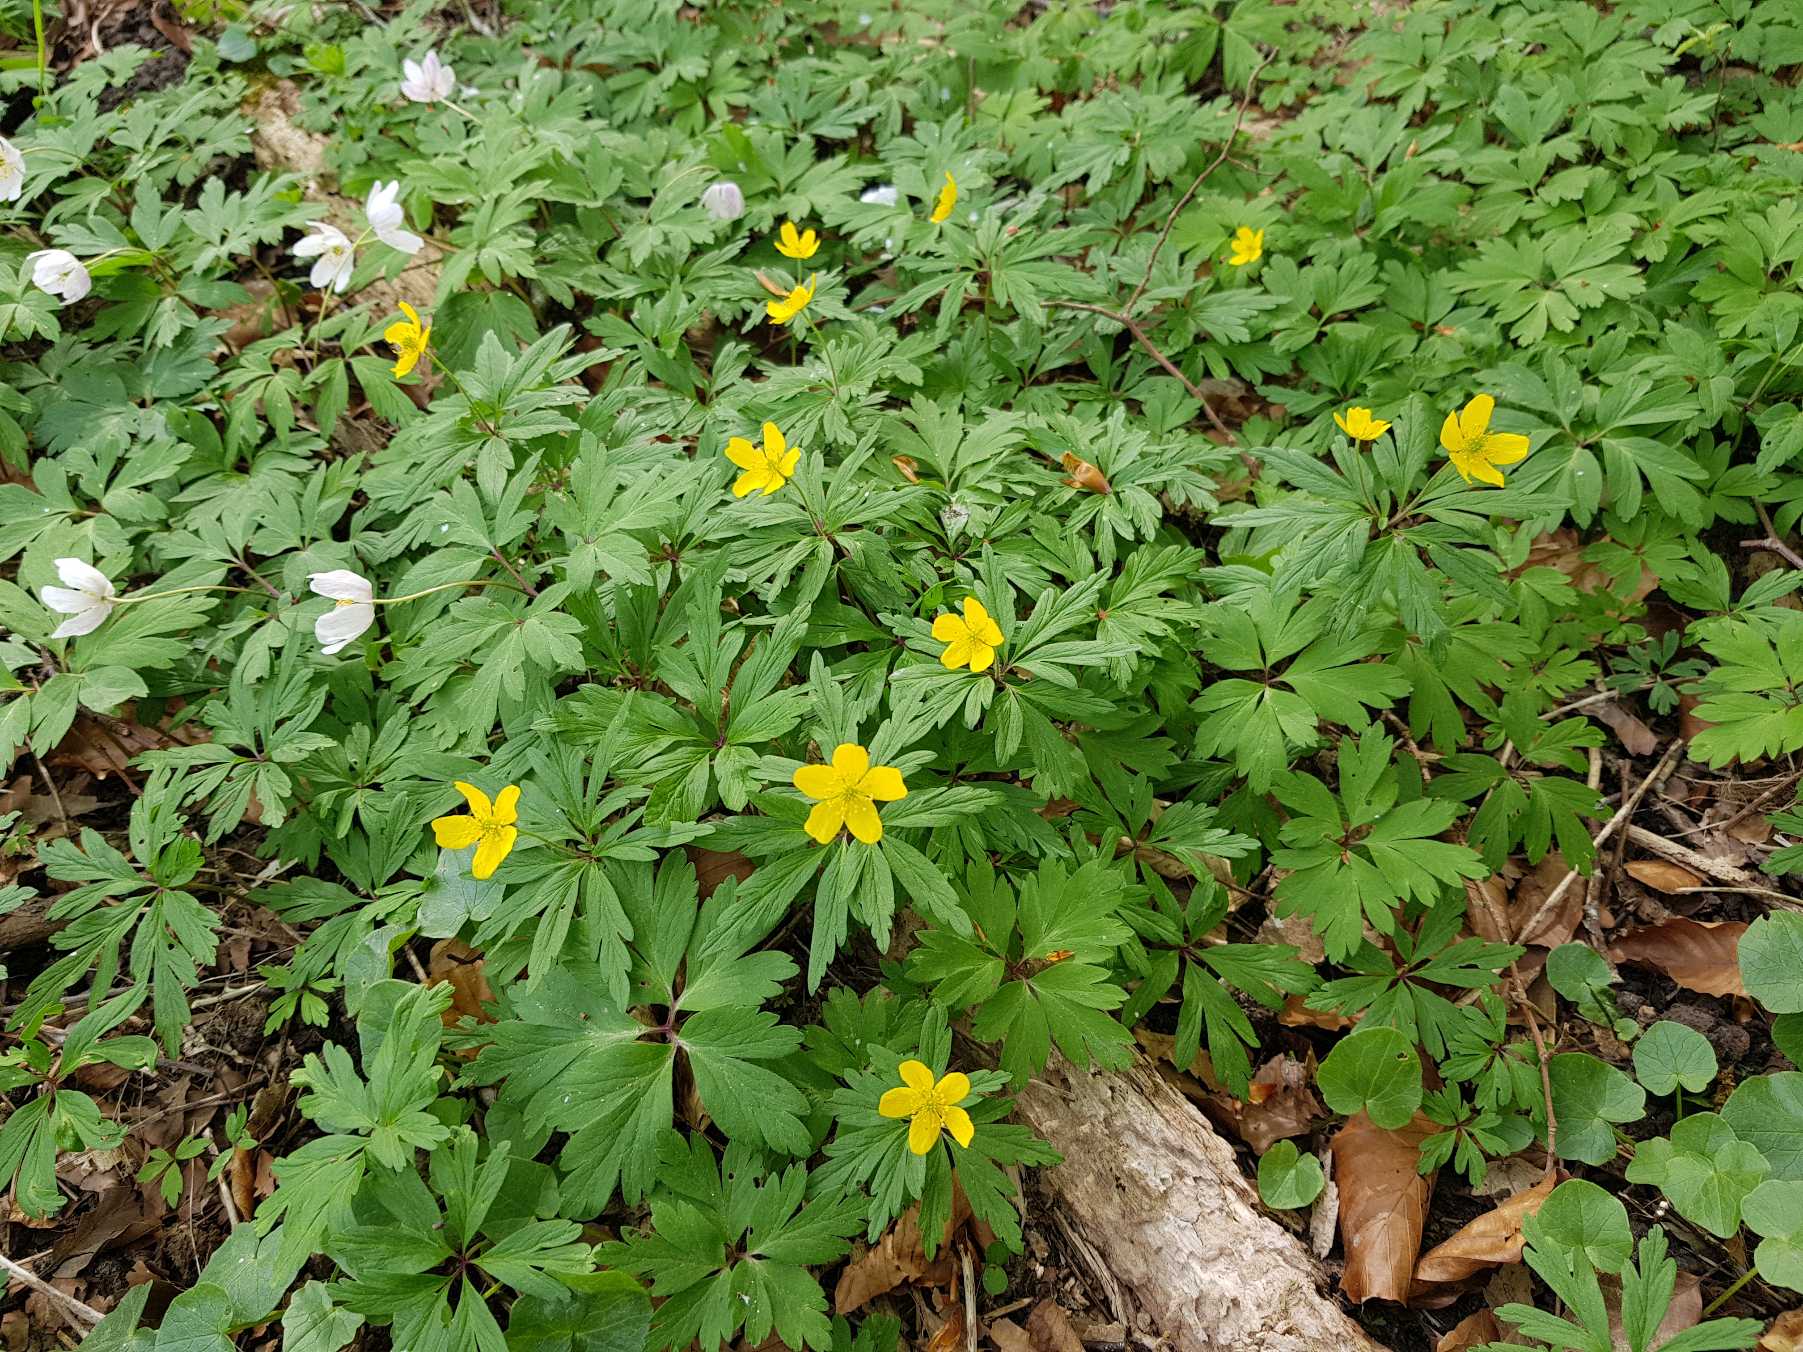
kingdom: Plantae
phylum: Tracheophyta
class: Magnoliopsida
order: Ranunculales
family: Ranunculaceae
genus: Anemone
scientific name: Anemone ranunculoides
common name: Gul anemone
